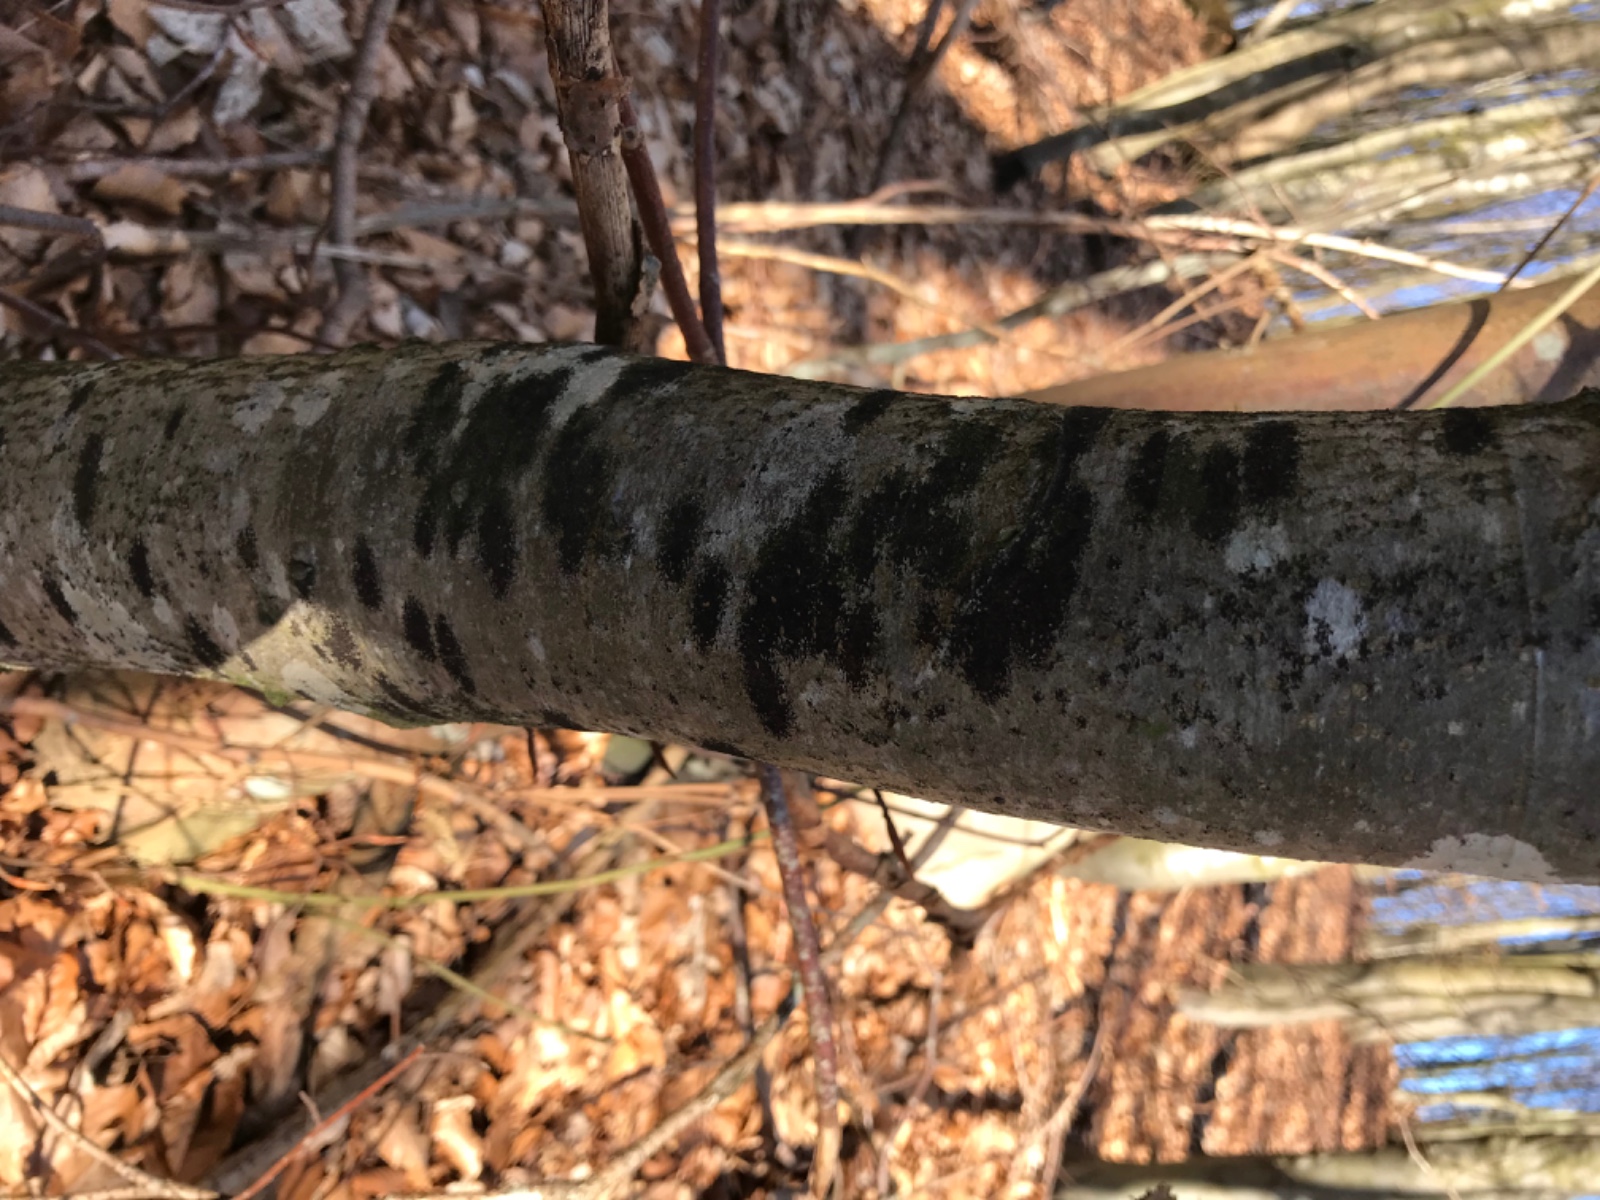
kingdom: Fungi
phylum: Ascomycota
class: Leotiomycetes
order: Rhytismatales
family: Ascodichaenaceae
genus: Ascodichaena
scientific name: Ascodichaena rugosa
